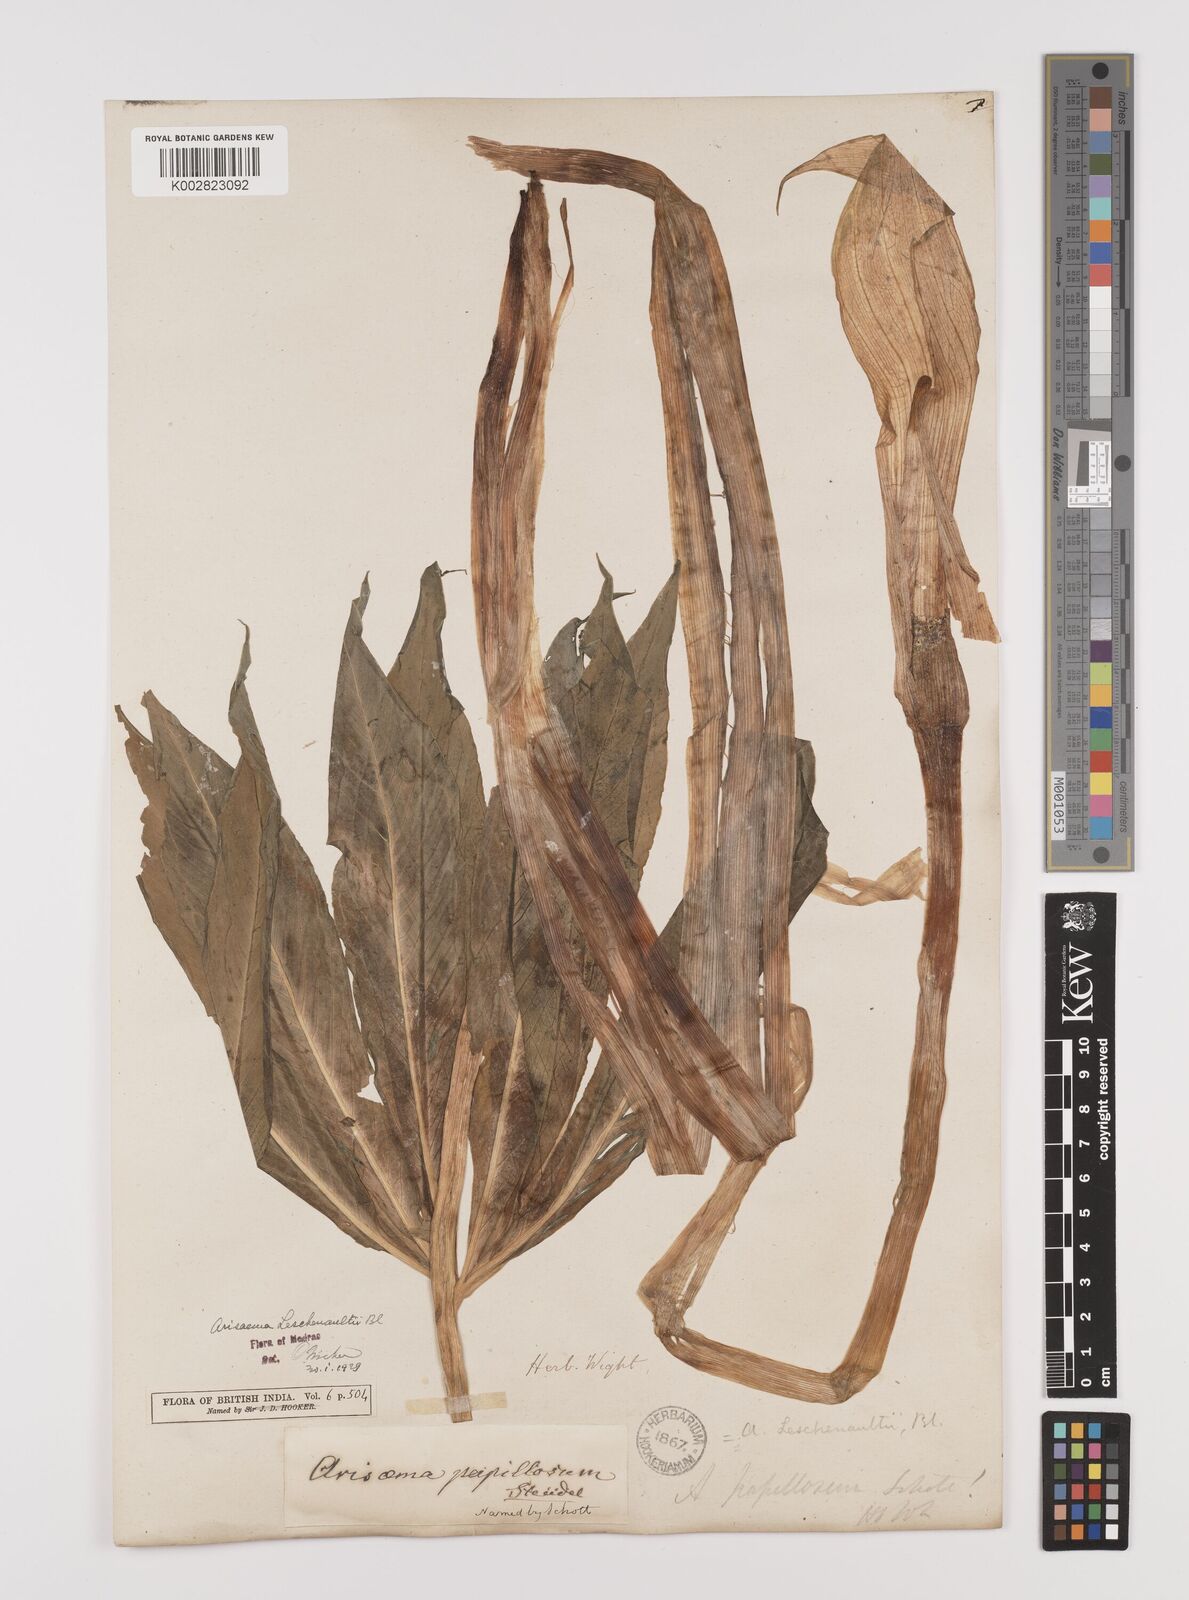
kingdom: Plantae
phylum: Tracheophyta
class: Liliopsida
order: Alismatales
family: Araceae
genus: Arisaema
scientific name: Arisaema leschenaultii
